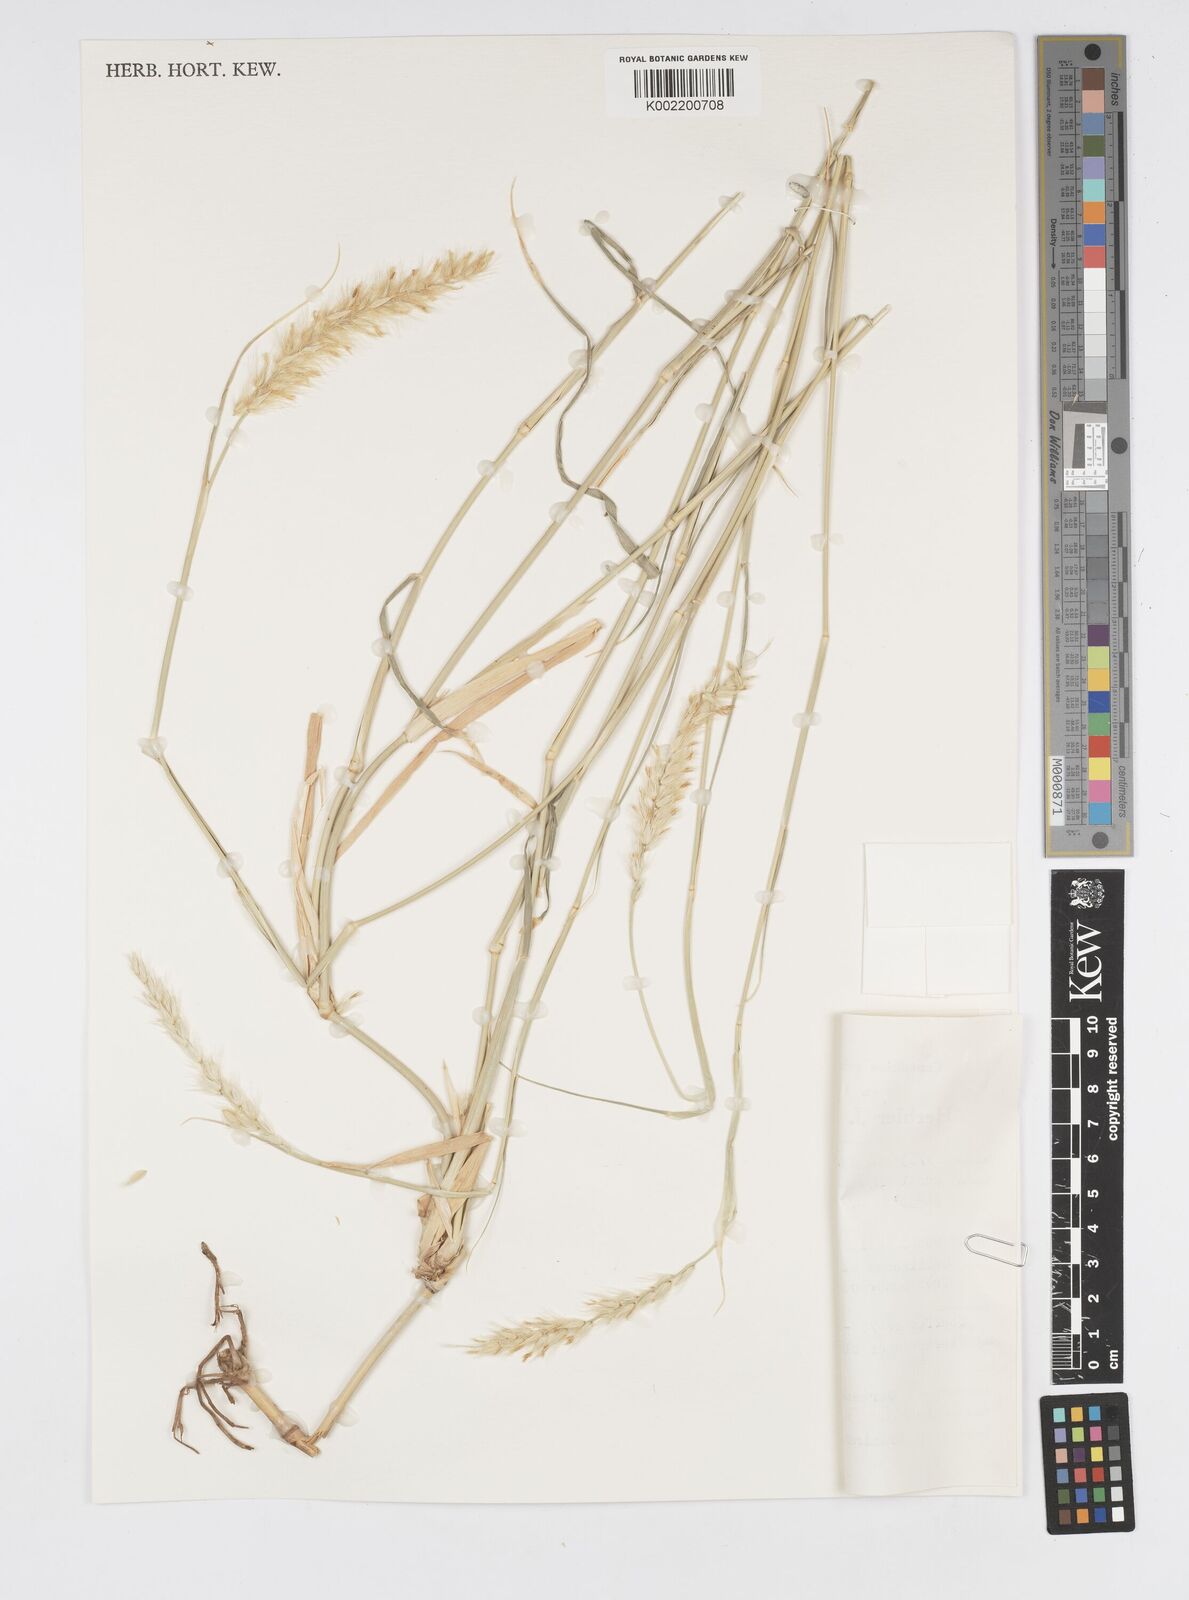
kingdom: Plantae
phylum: Tracheophyta
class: Liliopsida
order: Poales
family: Poaceae
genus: Cenchrus
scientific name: Cenchrus divisus
